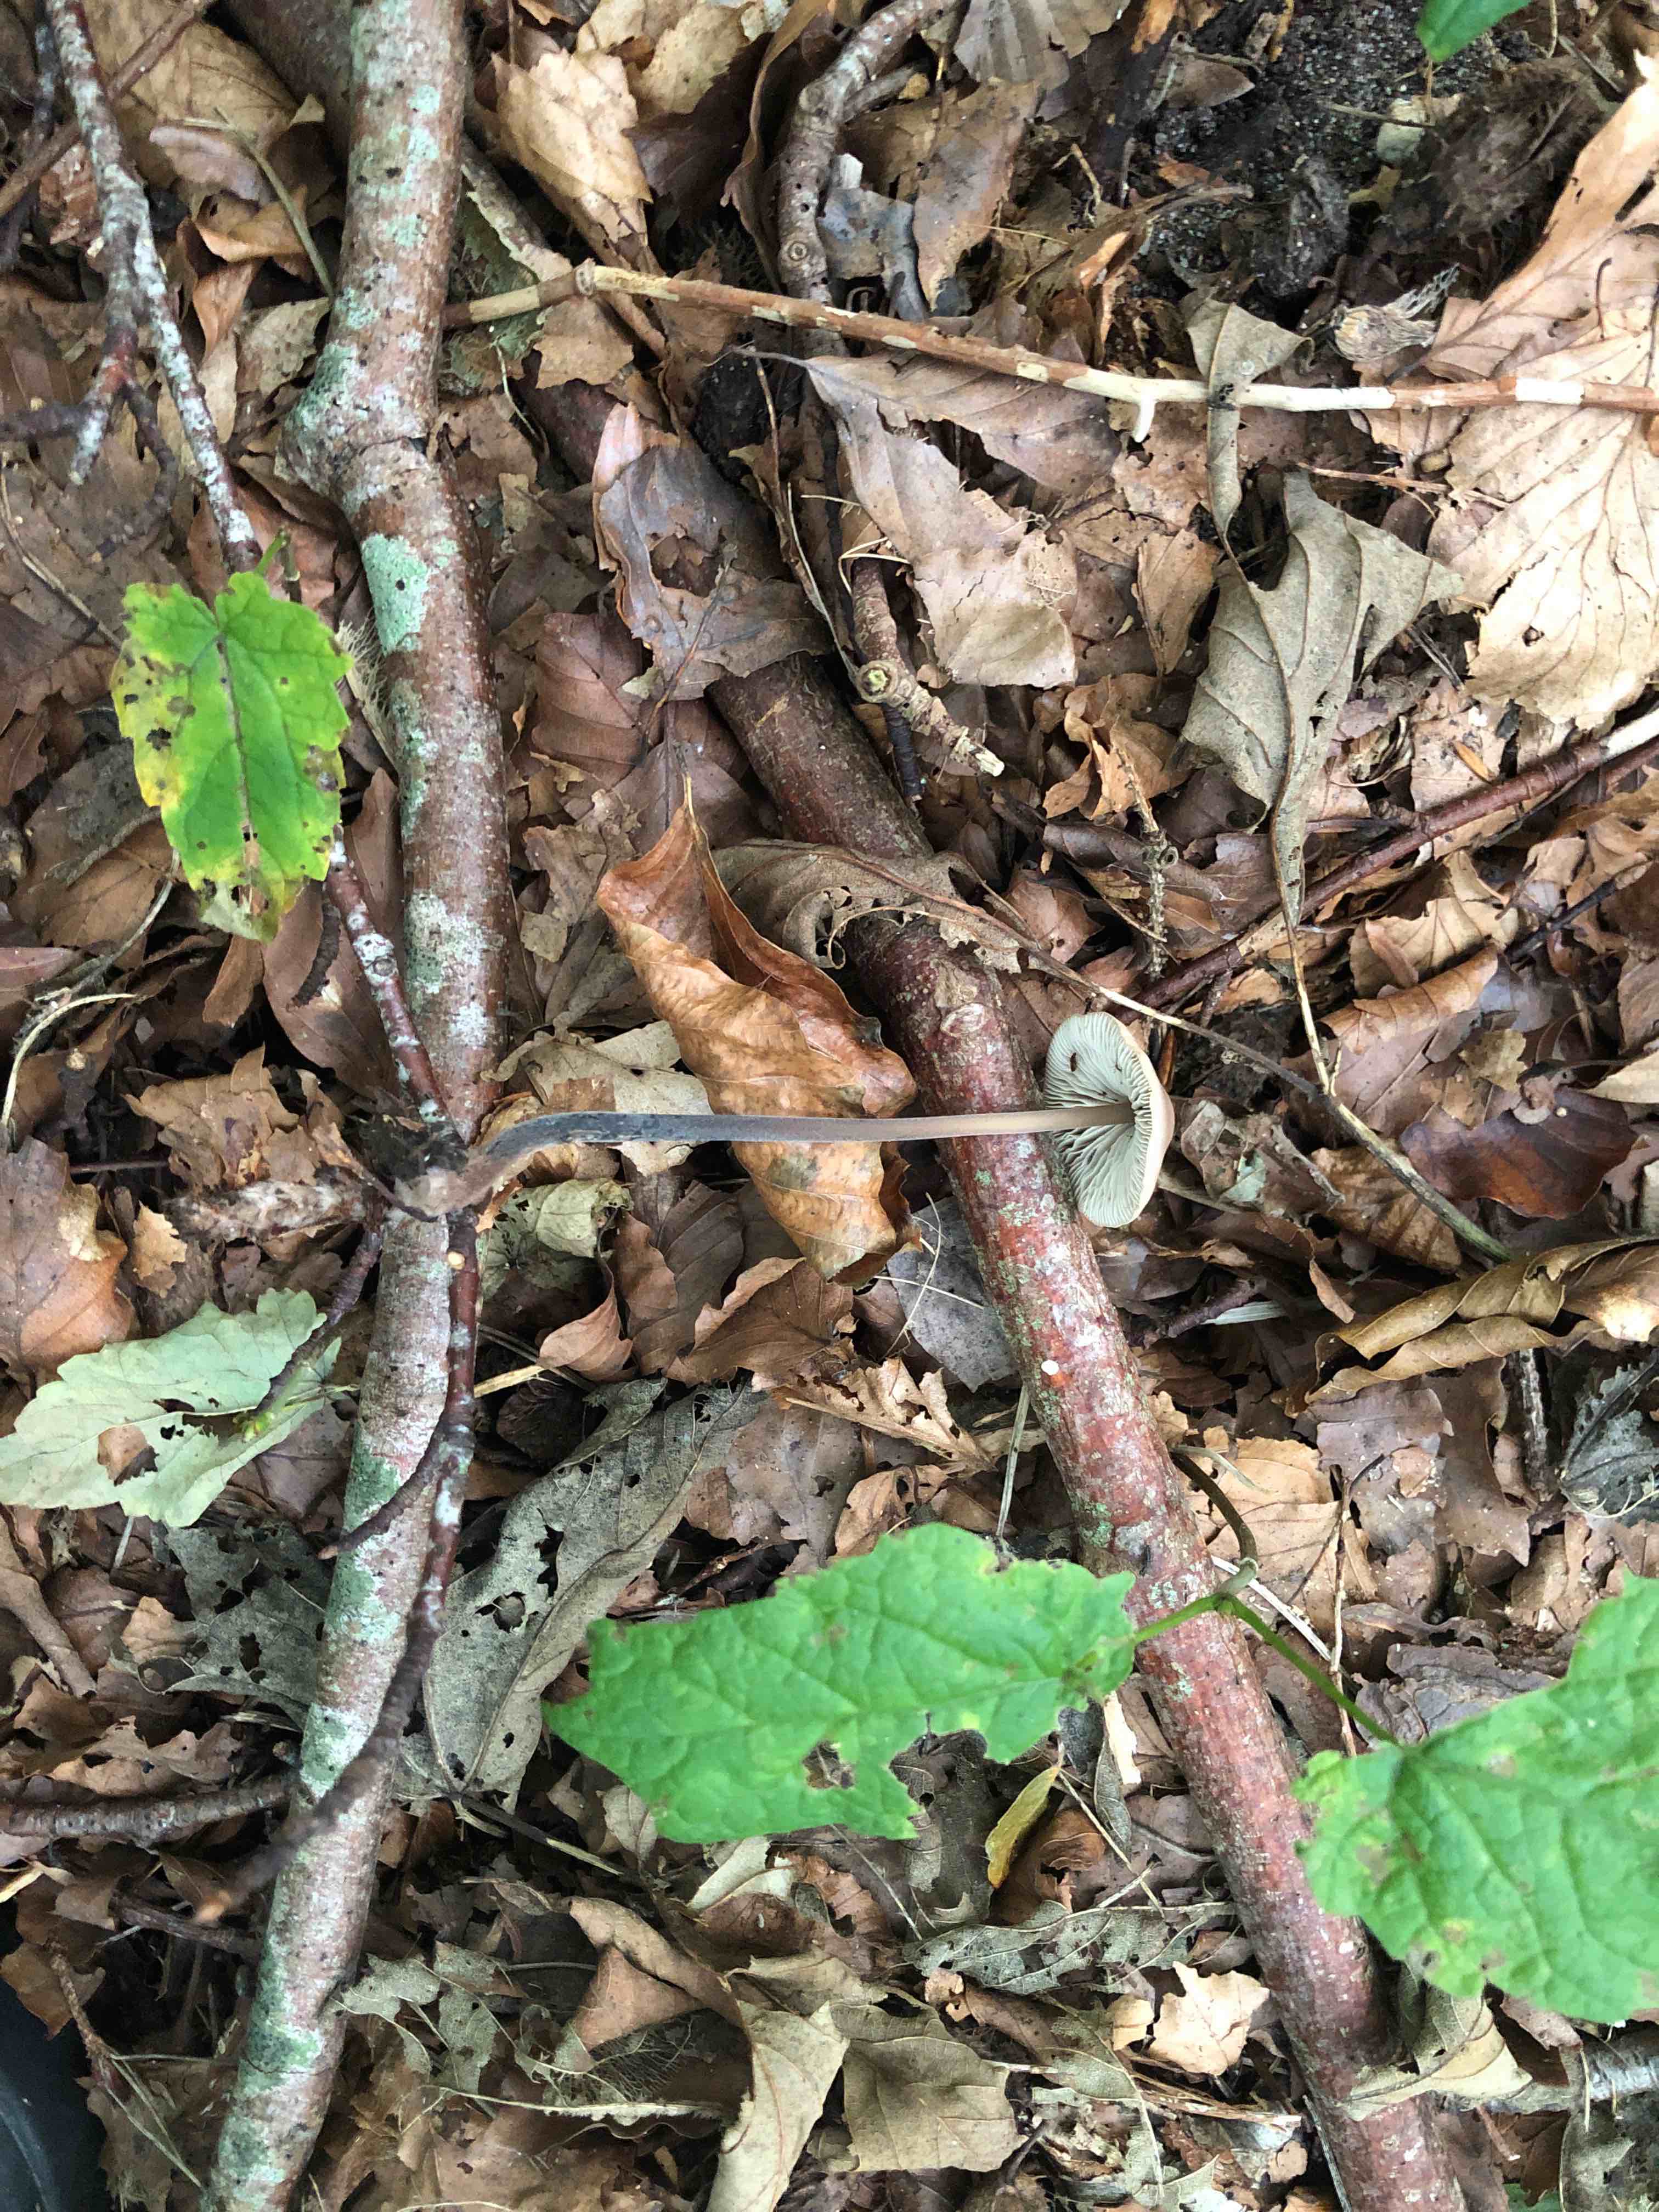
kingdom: Fungi
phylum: Basidiomycota
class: Agaricomycetes
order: Agaricales
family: Omphalotaceae
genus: Mycetinis
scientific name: Mycetinis alliaceus
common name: stor løghat
